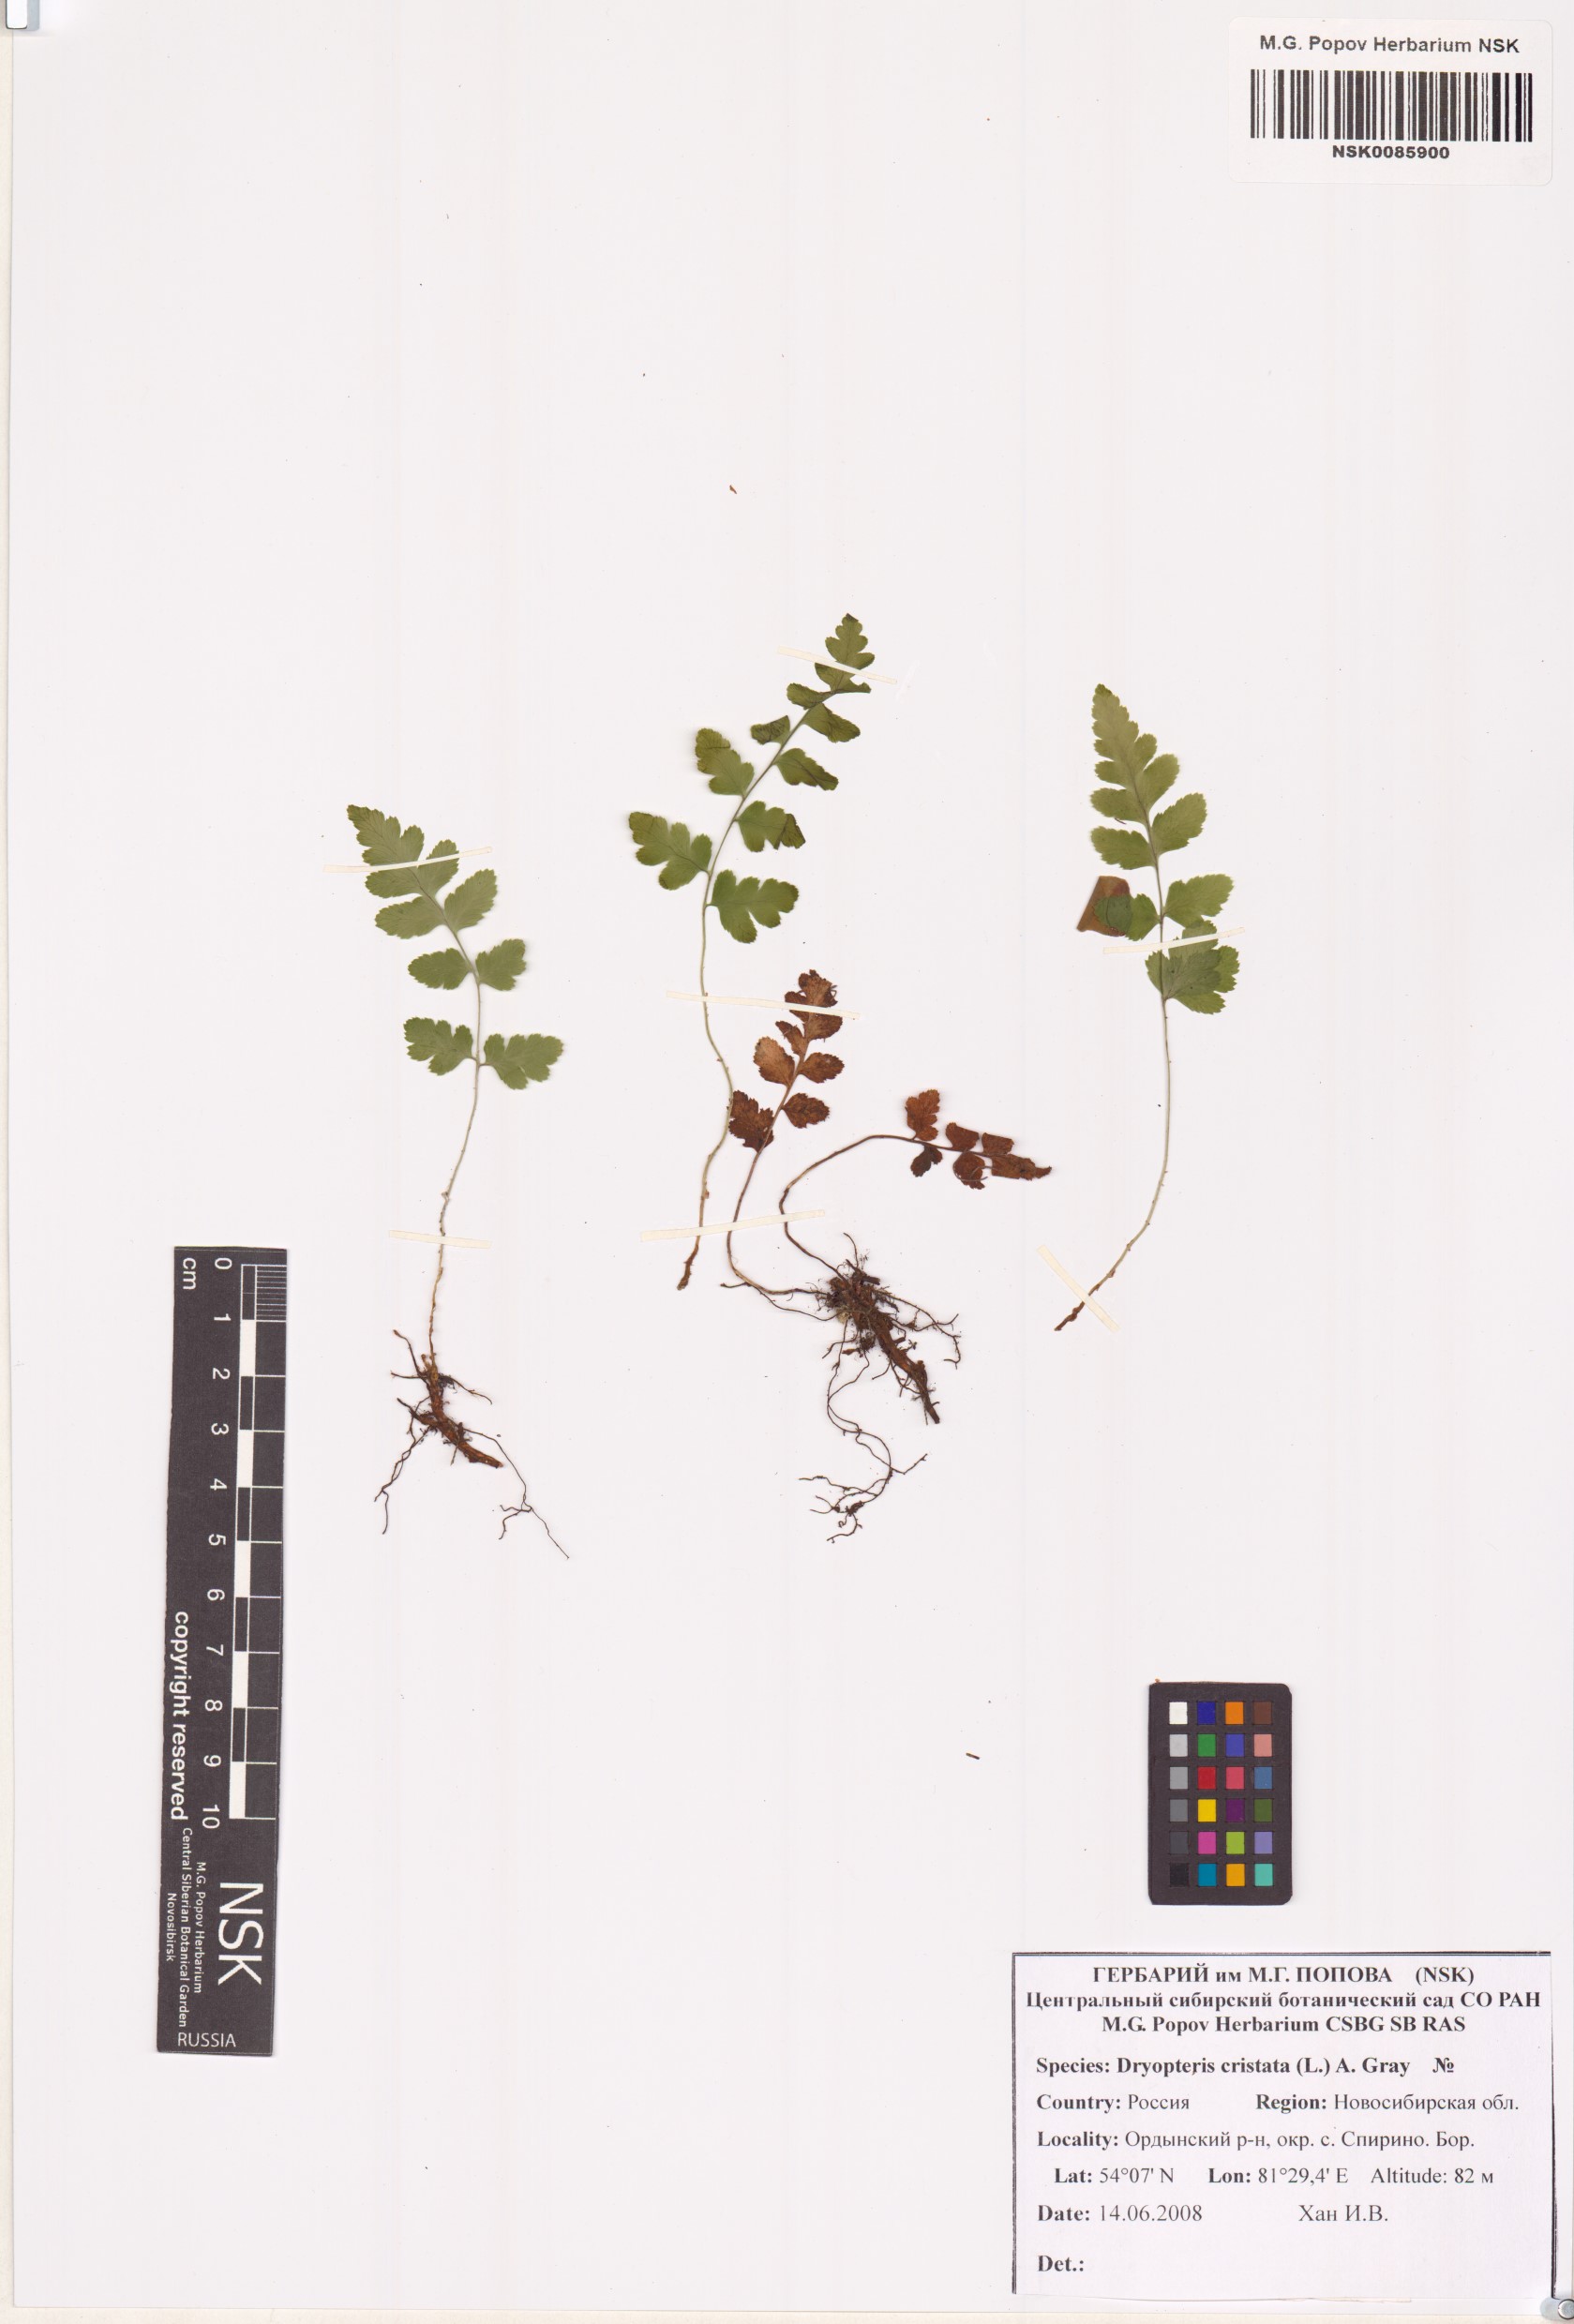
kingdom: Plantae
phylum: Tracheophyta
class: Polypodiopsida
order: Polypodiales
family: Dryopteridaceae
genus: Dryopteris
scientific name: Dryopteris cristata
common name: Crested wood fern
